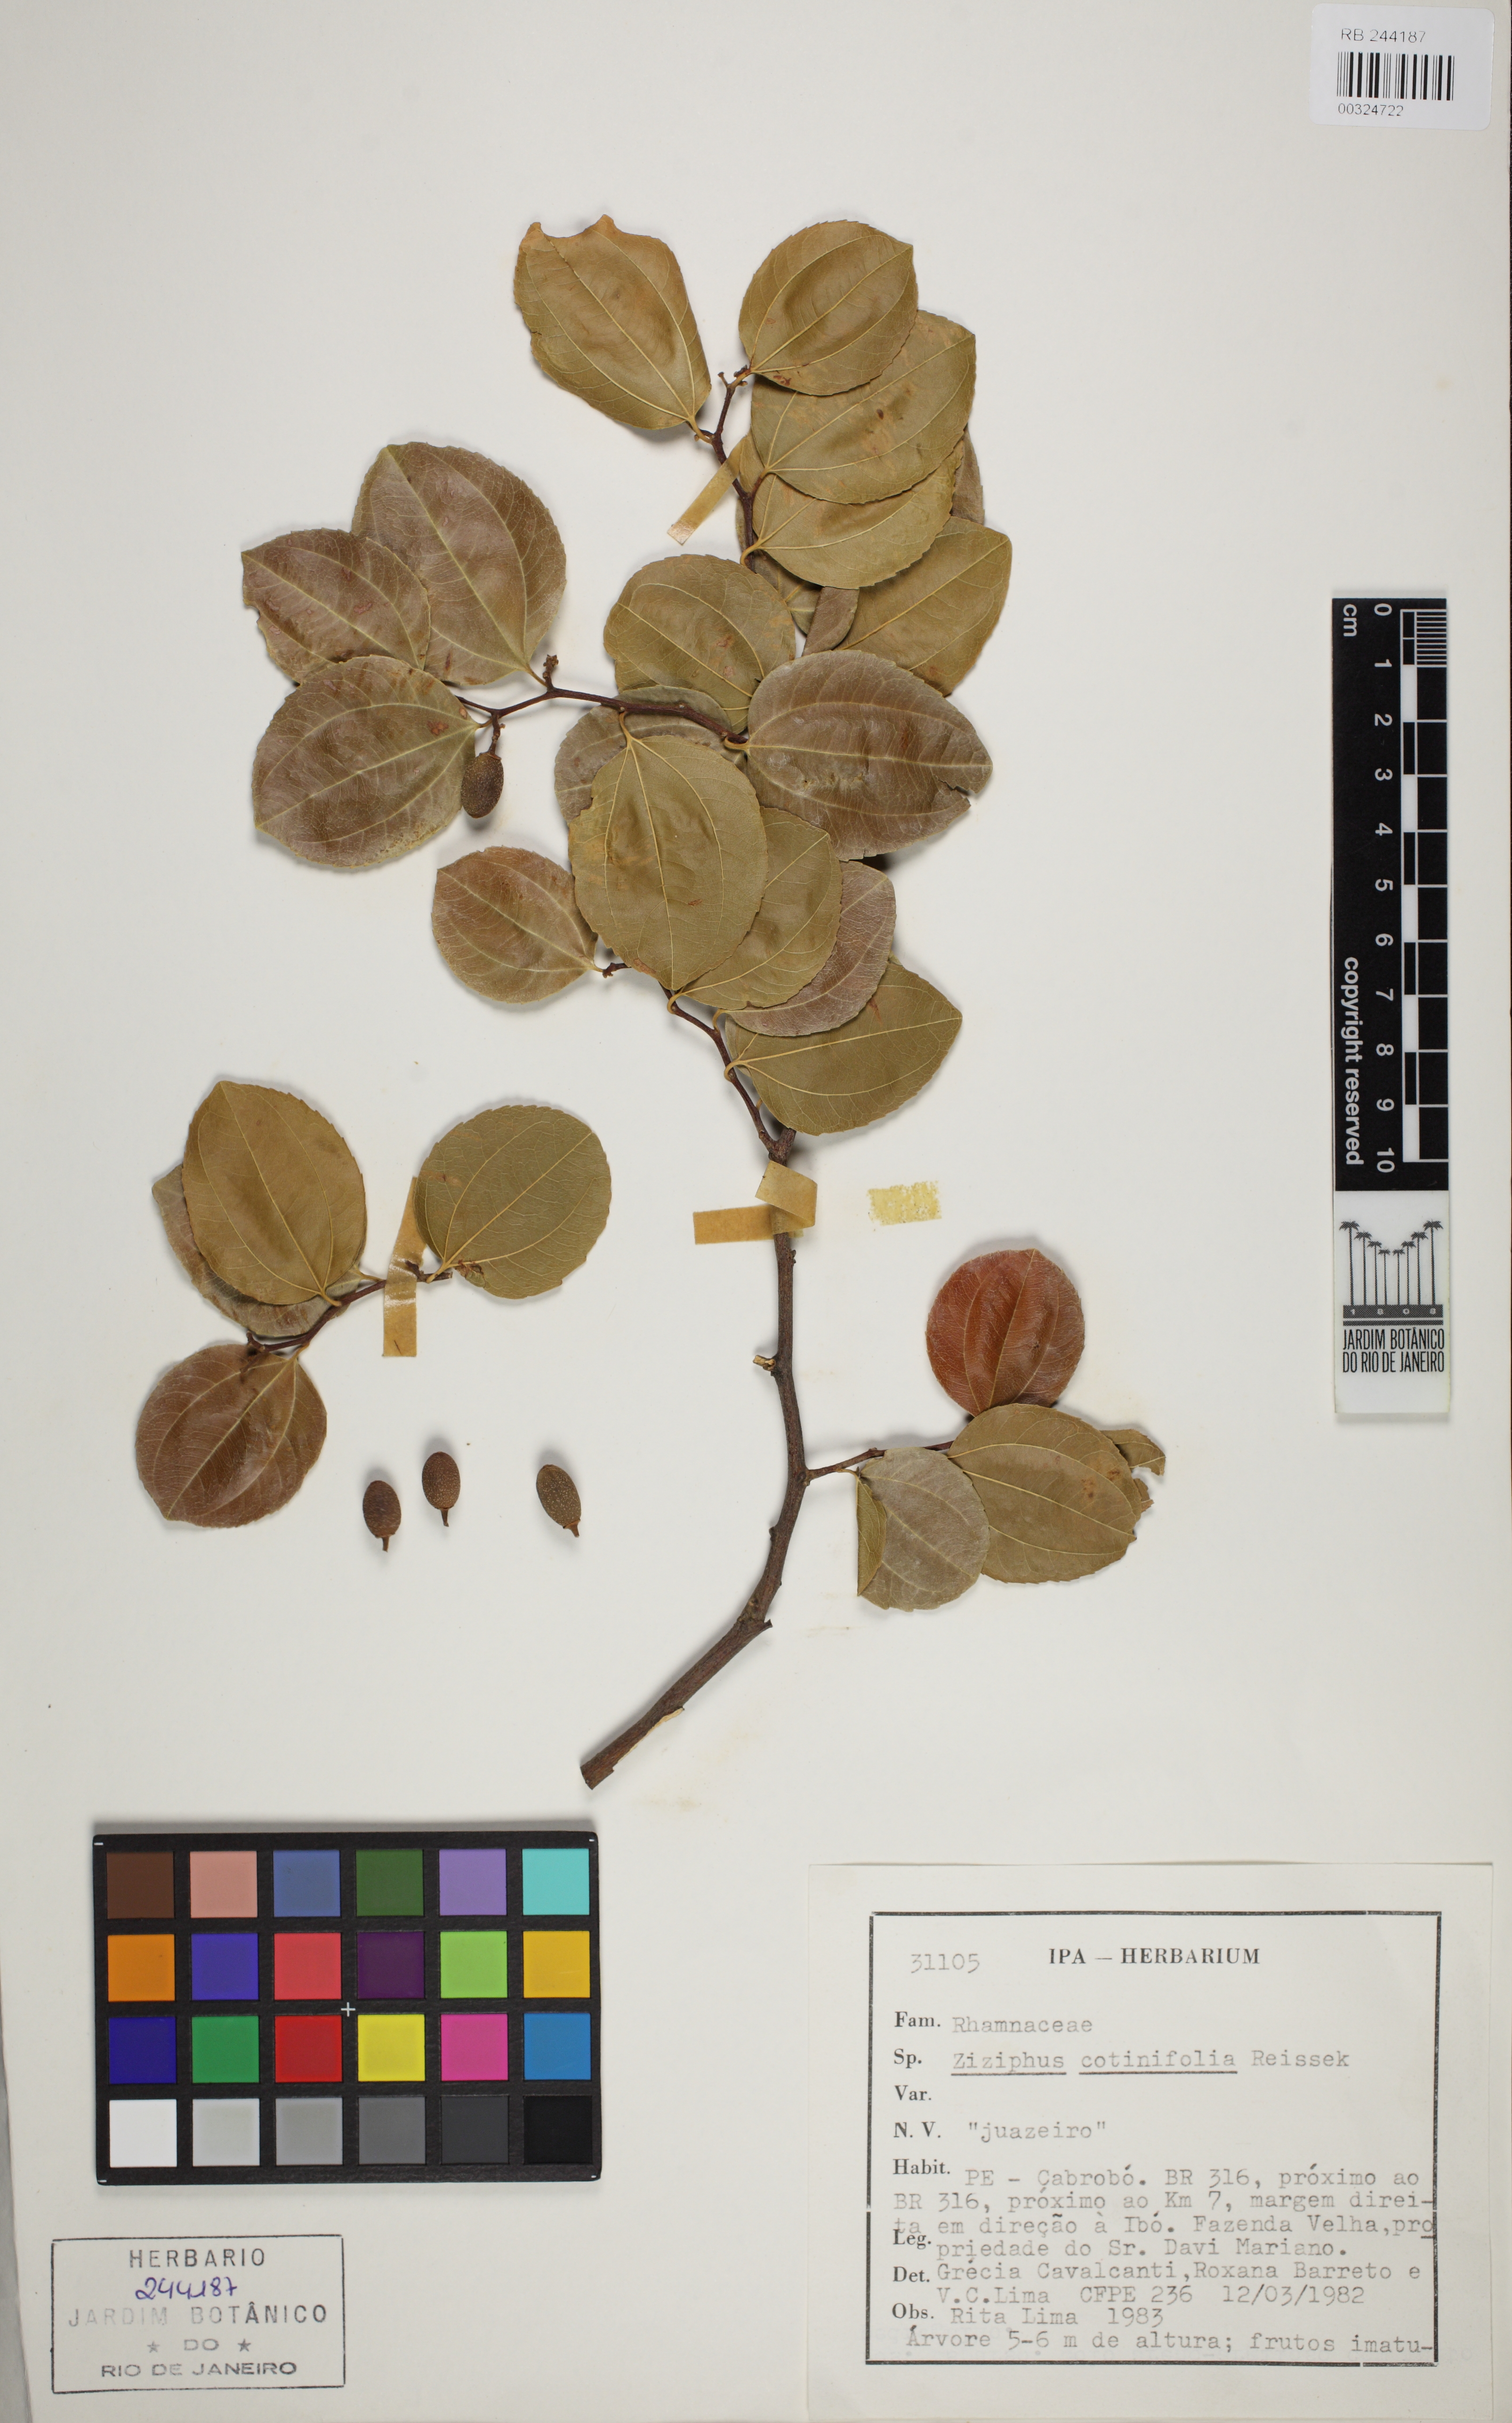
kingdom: Plantae
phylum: Tracheophyta
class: Magnoliopsida
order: Rosales
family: Rhamnaceae
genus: Sarcomphalus
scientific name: Sarcomphalus cotinifolius
